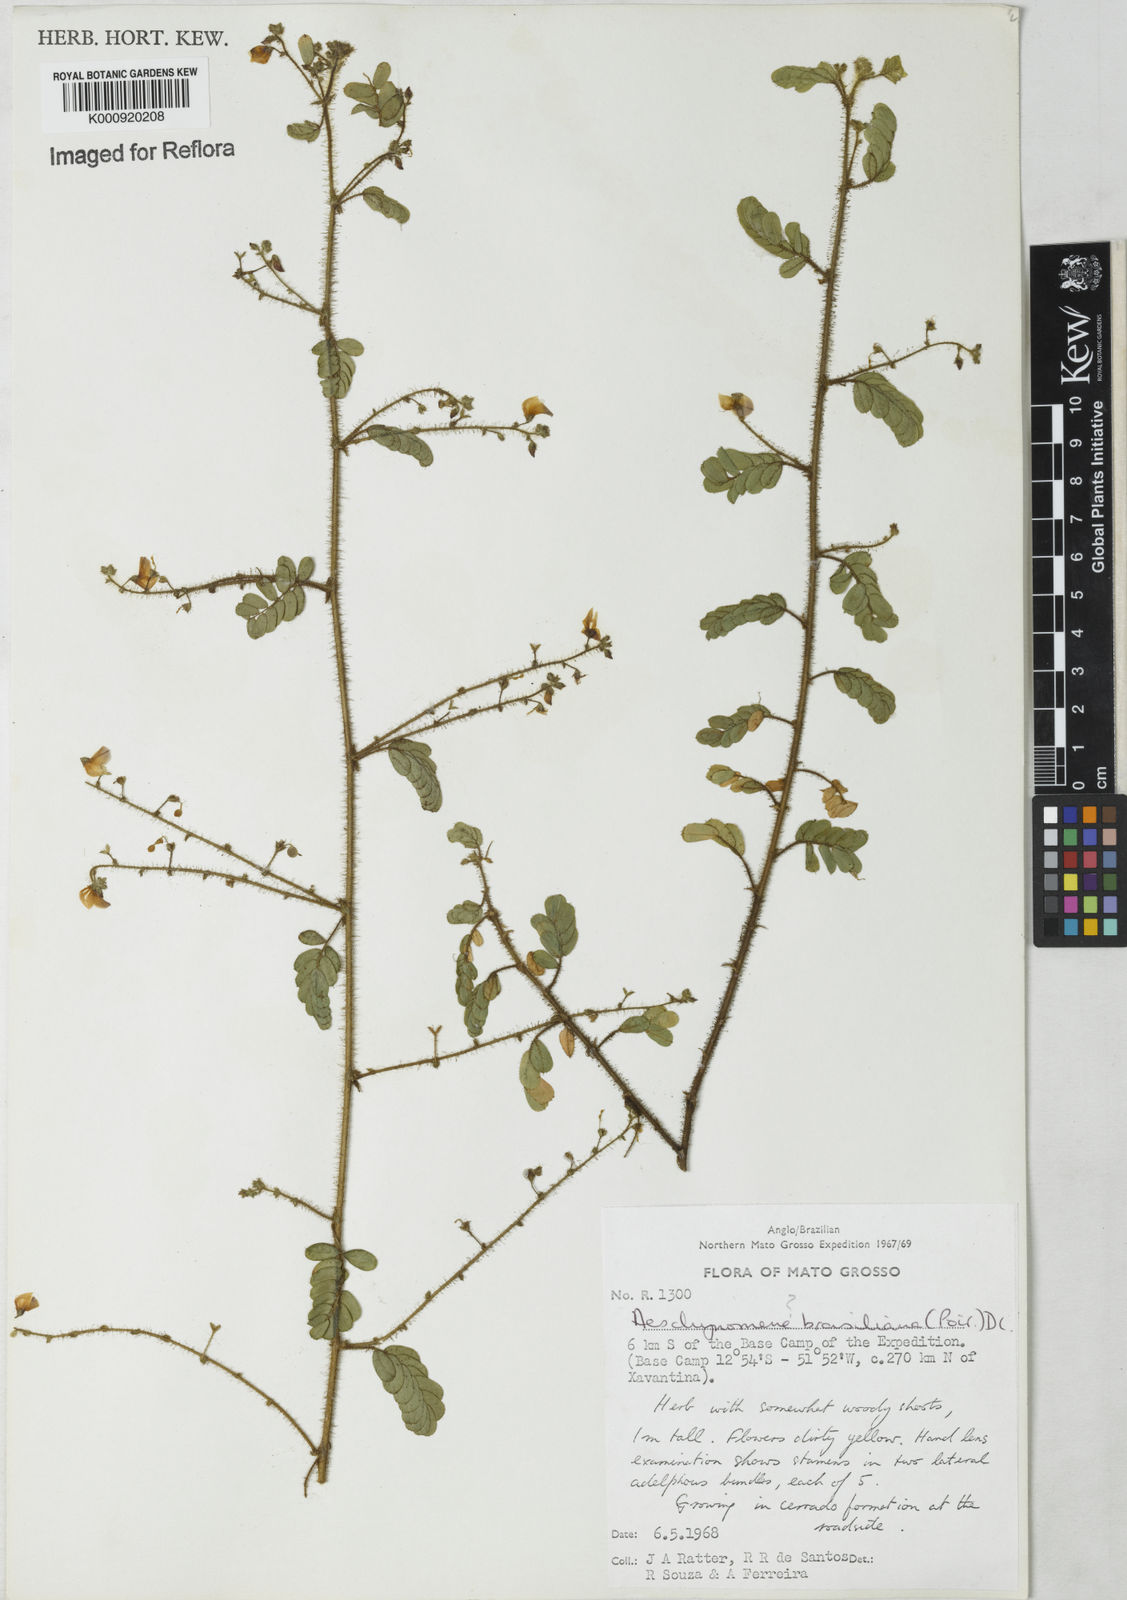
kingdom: Plantae
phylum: Tracheophyta
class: Magnoliopsida
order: Fabales
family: Fabaceae
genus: Ctenodon
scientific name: Ctenodon brasilianus
